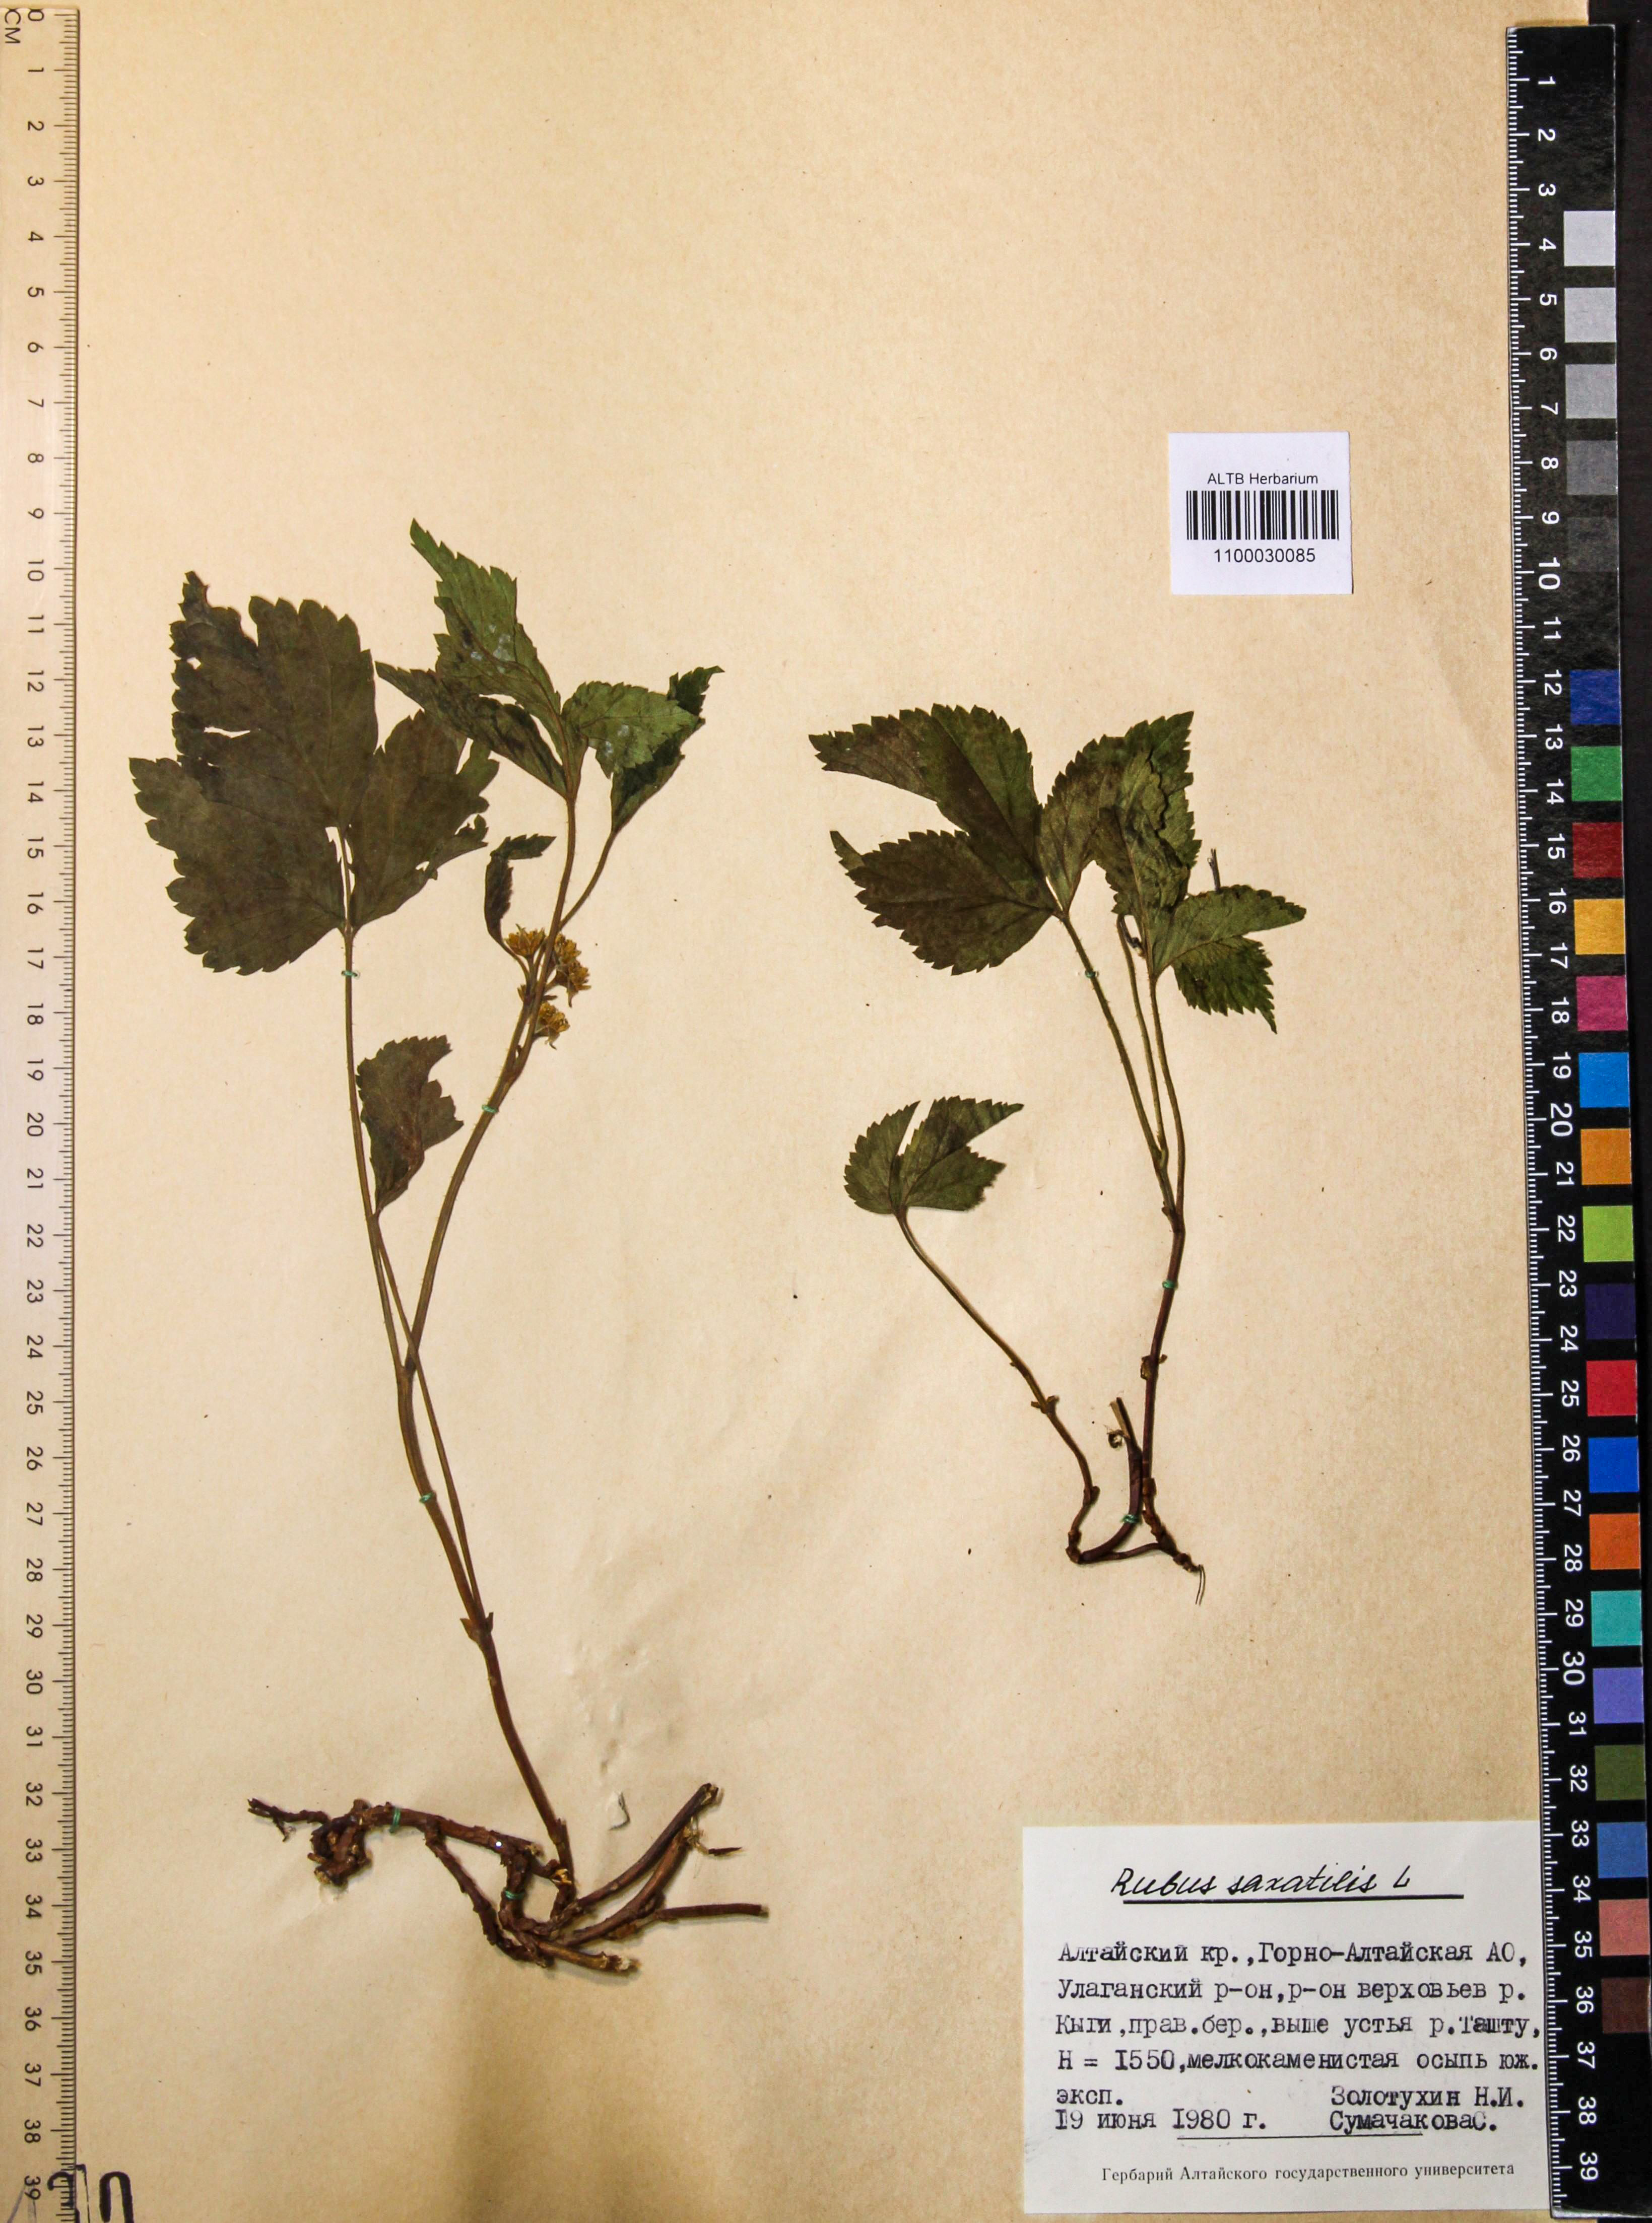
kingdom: Plantae
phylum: Tracheophyta
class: Magnoliopsida
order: Rosales
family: Rosaceae
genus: Rubus
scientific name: Rubus saxatilis
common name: Stone bramble
